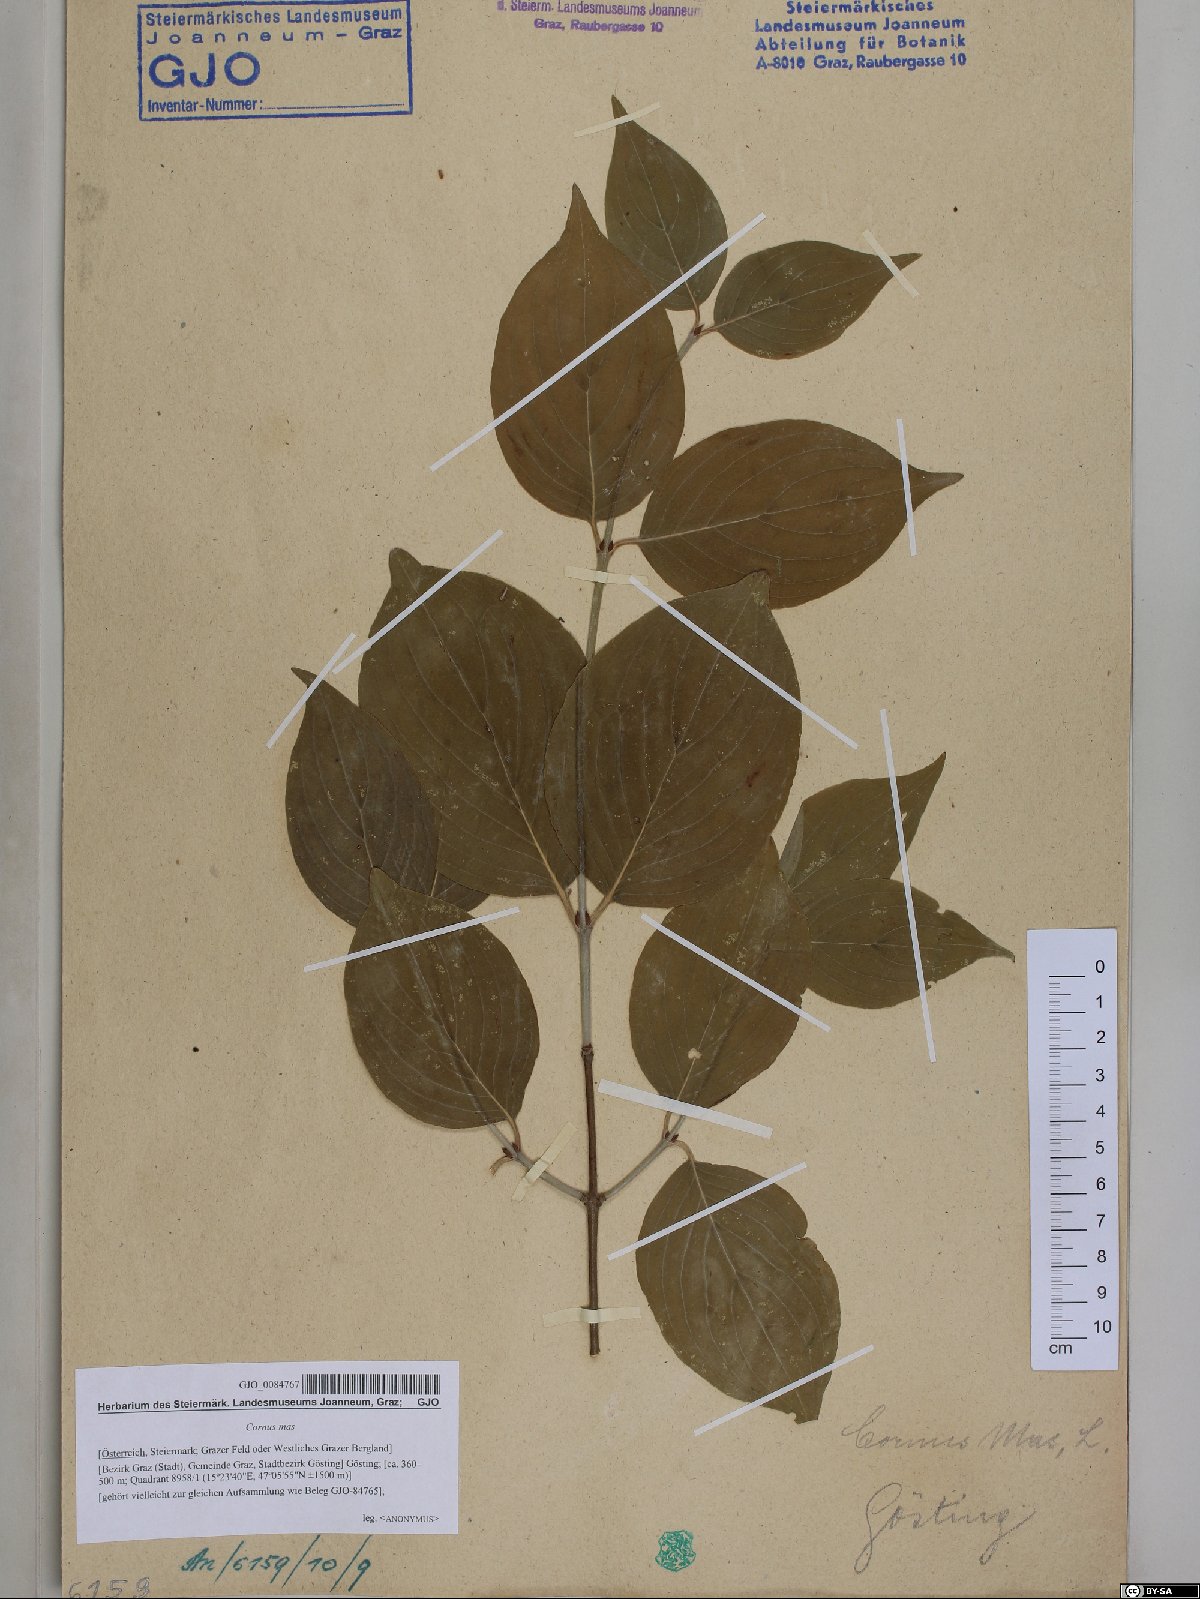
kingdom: Plantae
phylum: Tracheophyta
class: Magnoliopsida
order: Cornales
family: Cornaceae
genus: Cornus
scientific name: Cornus mas
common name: Cornelian-cherry
